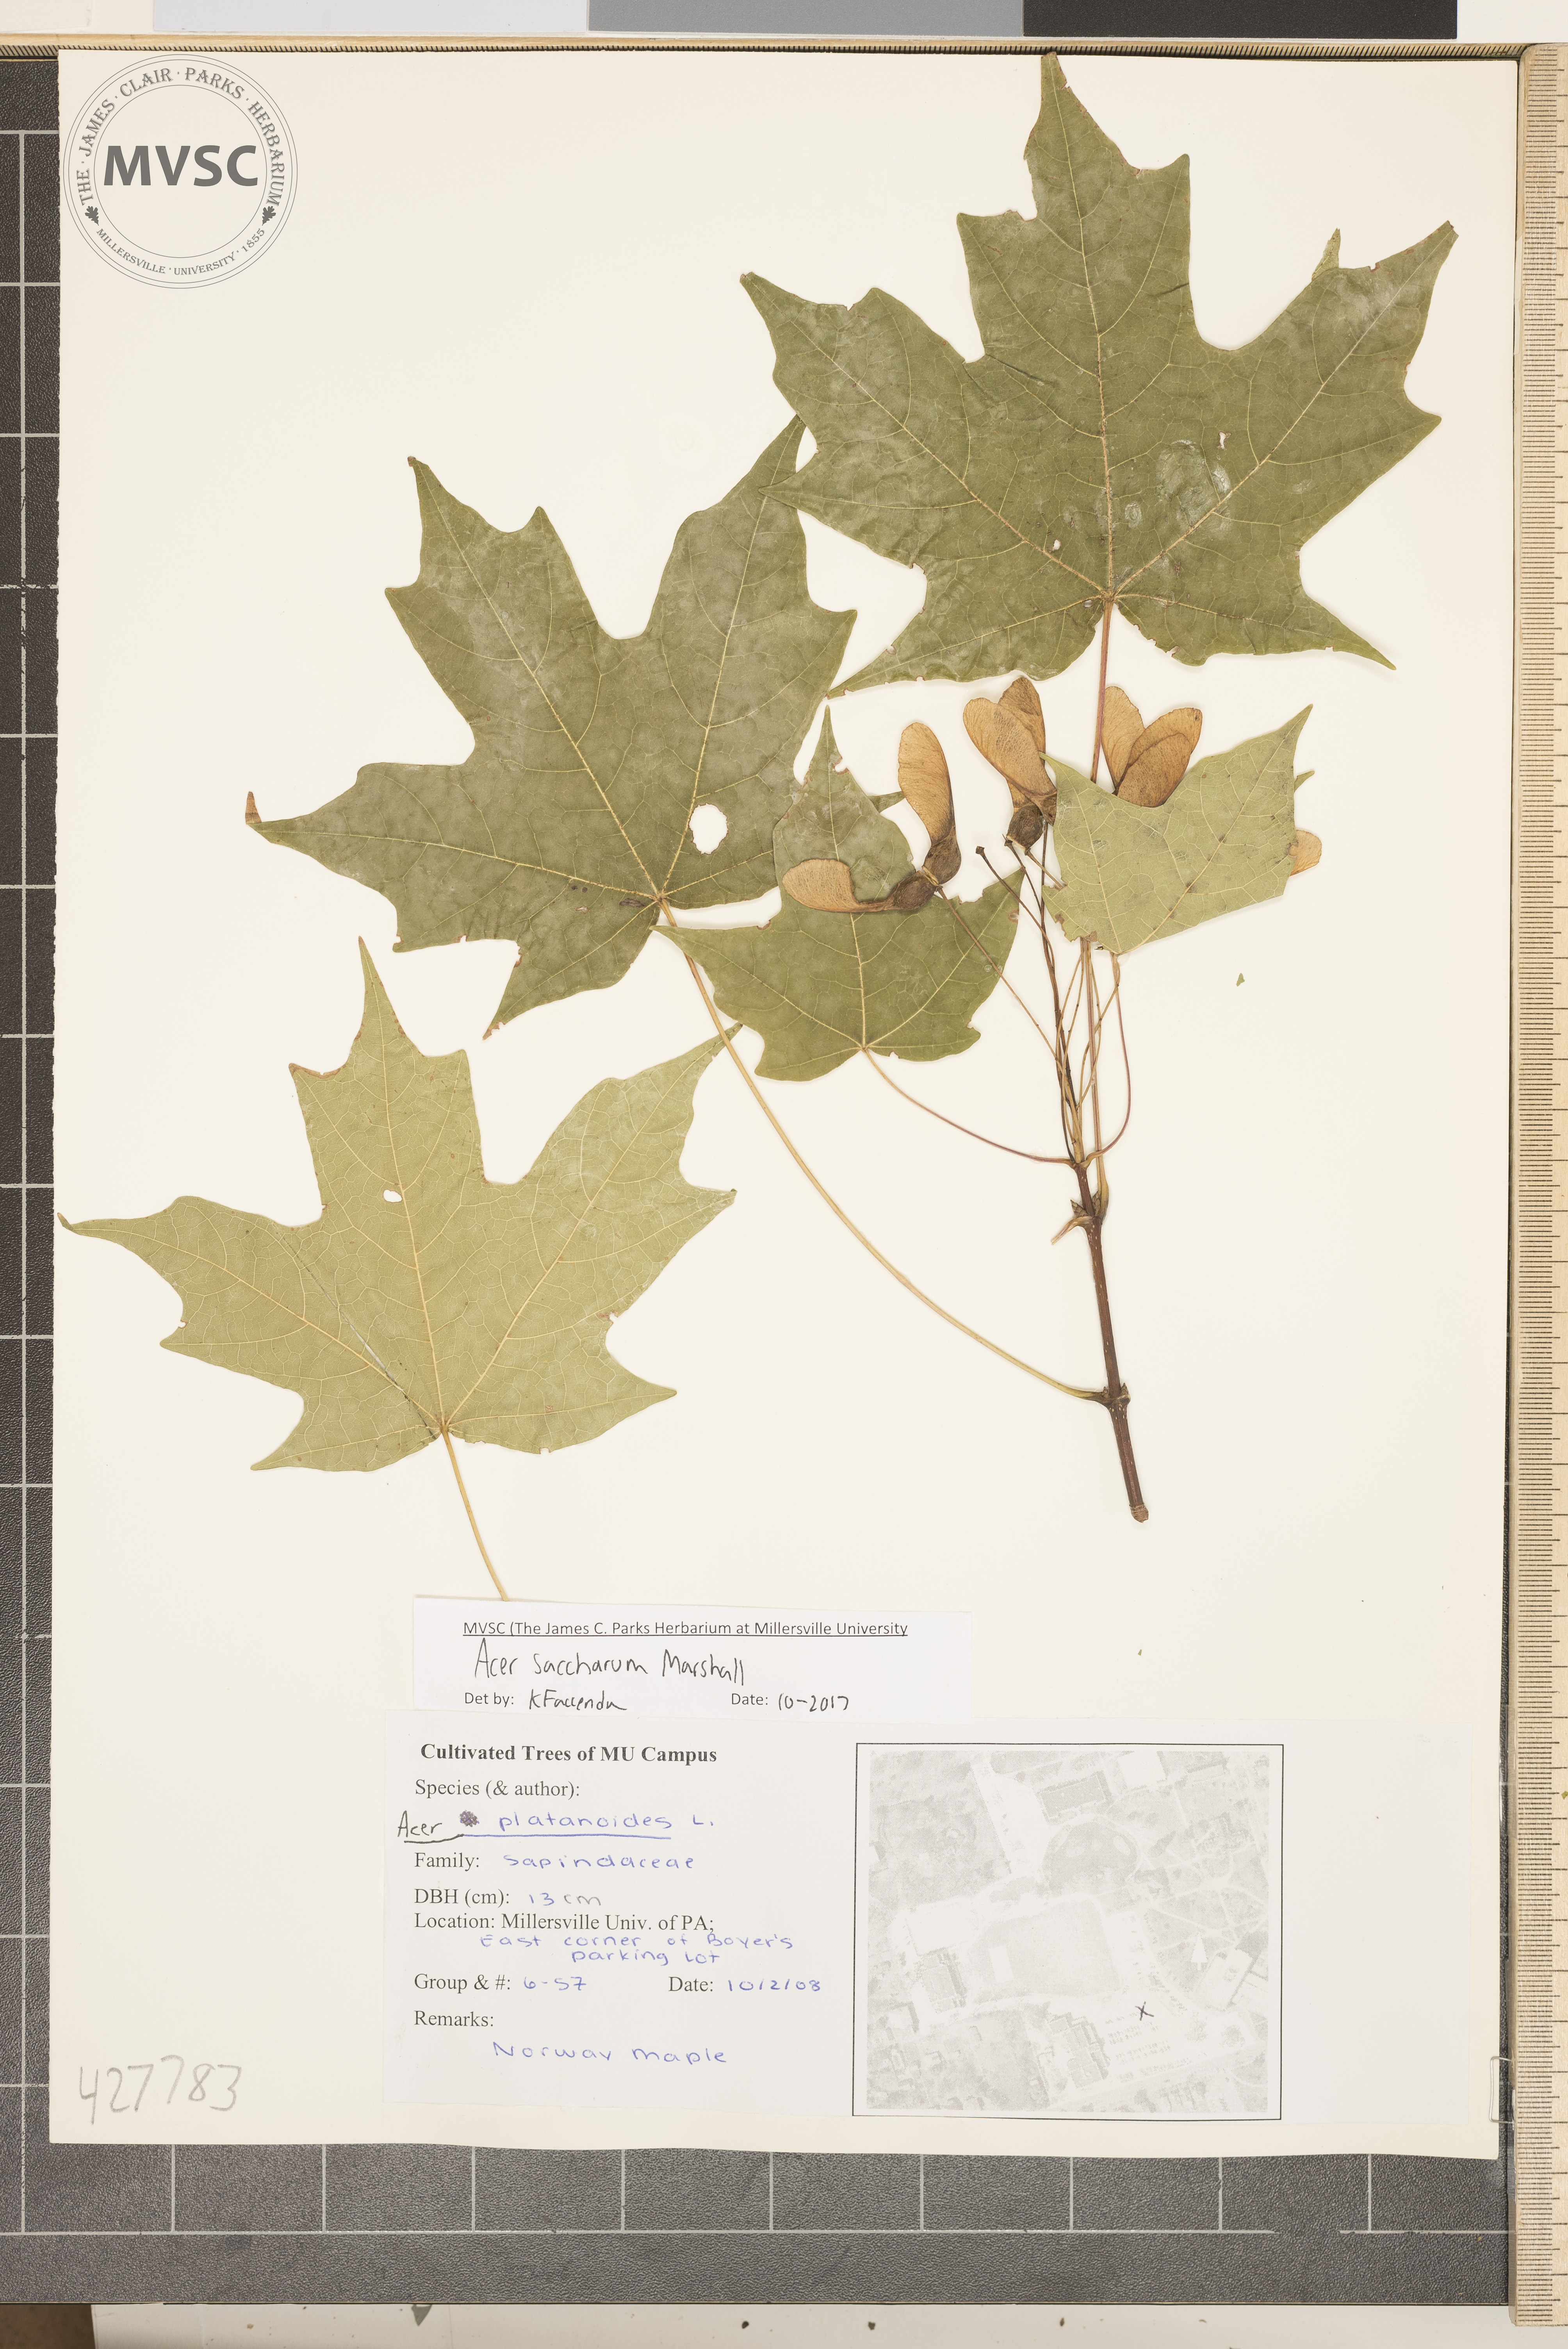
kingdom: Plantae
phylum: Tracheophyta
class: Magnoliopsida
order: Sapindales
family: Sapindaceae
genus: Acer
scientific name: Acer saccharum
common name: Sugar maple
